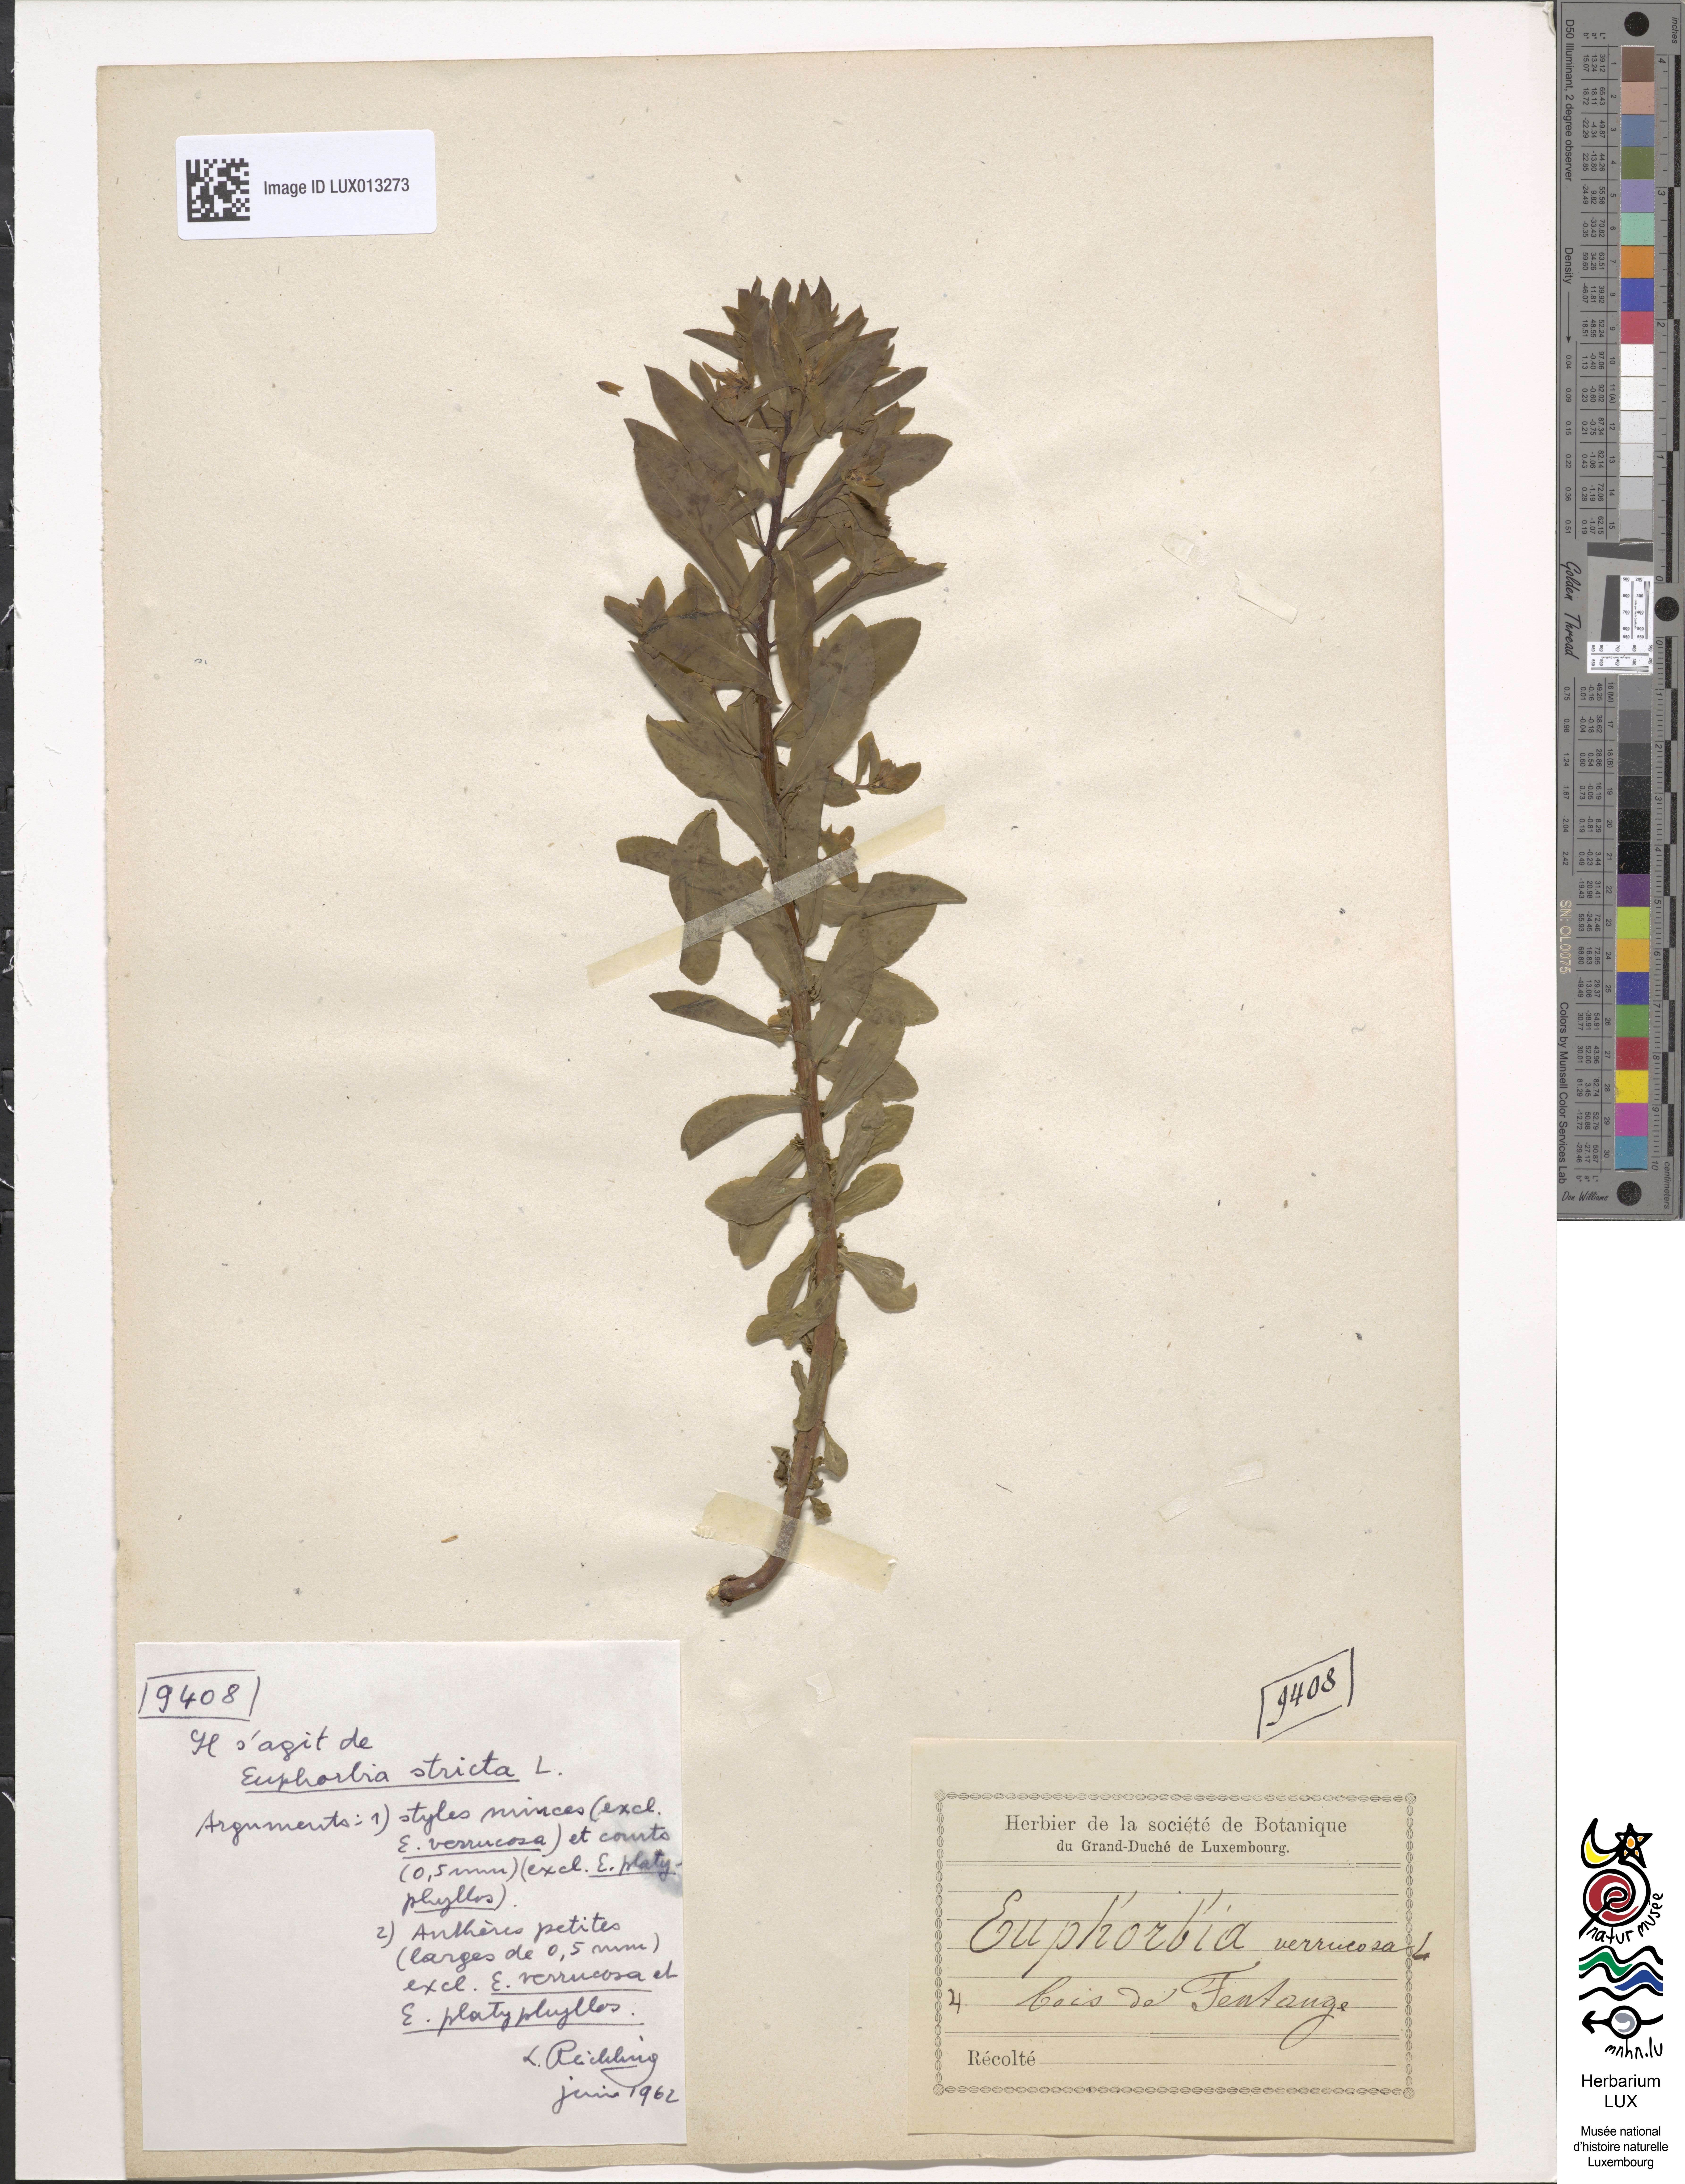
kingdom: Plantae
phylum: Tracheophyta
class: Magnoliopsida
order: Malpighiales
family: Euphorbiaceae
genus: Euphorbia
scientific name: Euphorbia stricta
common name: Upright spurge
